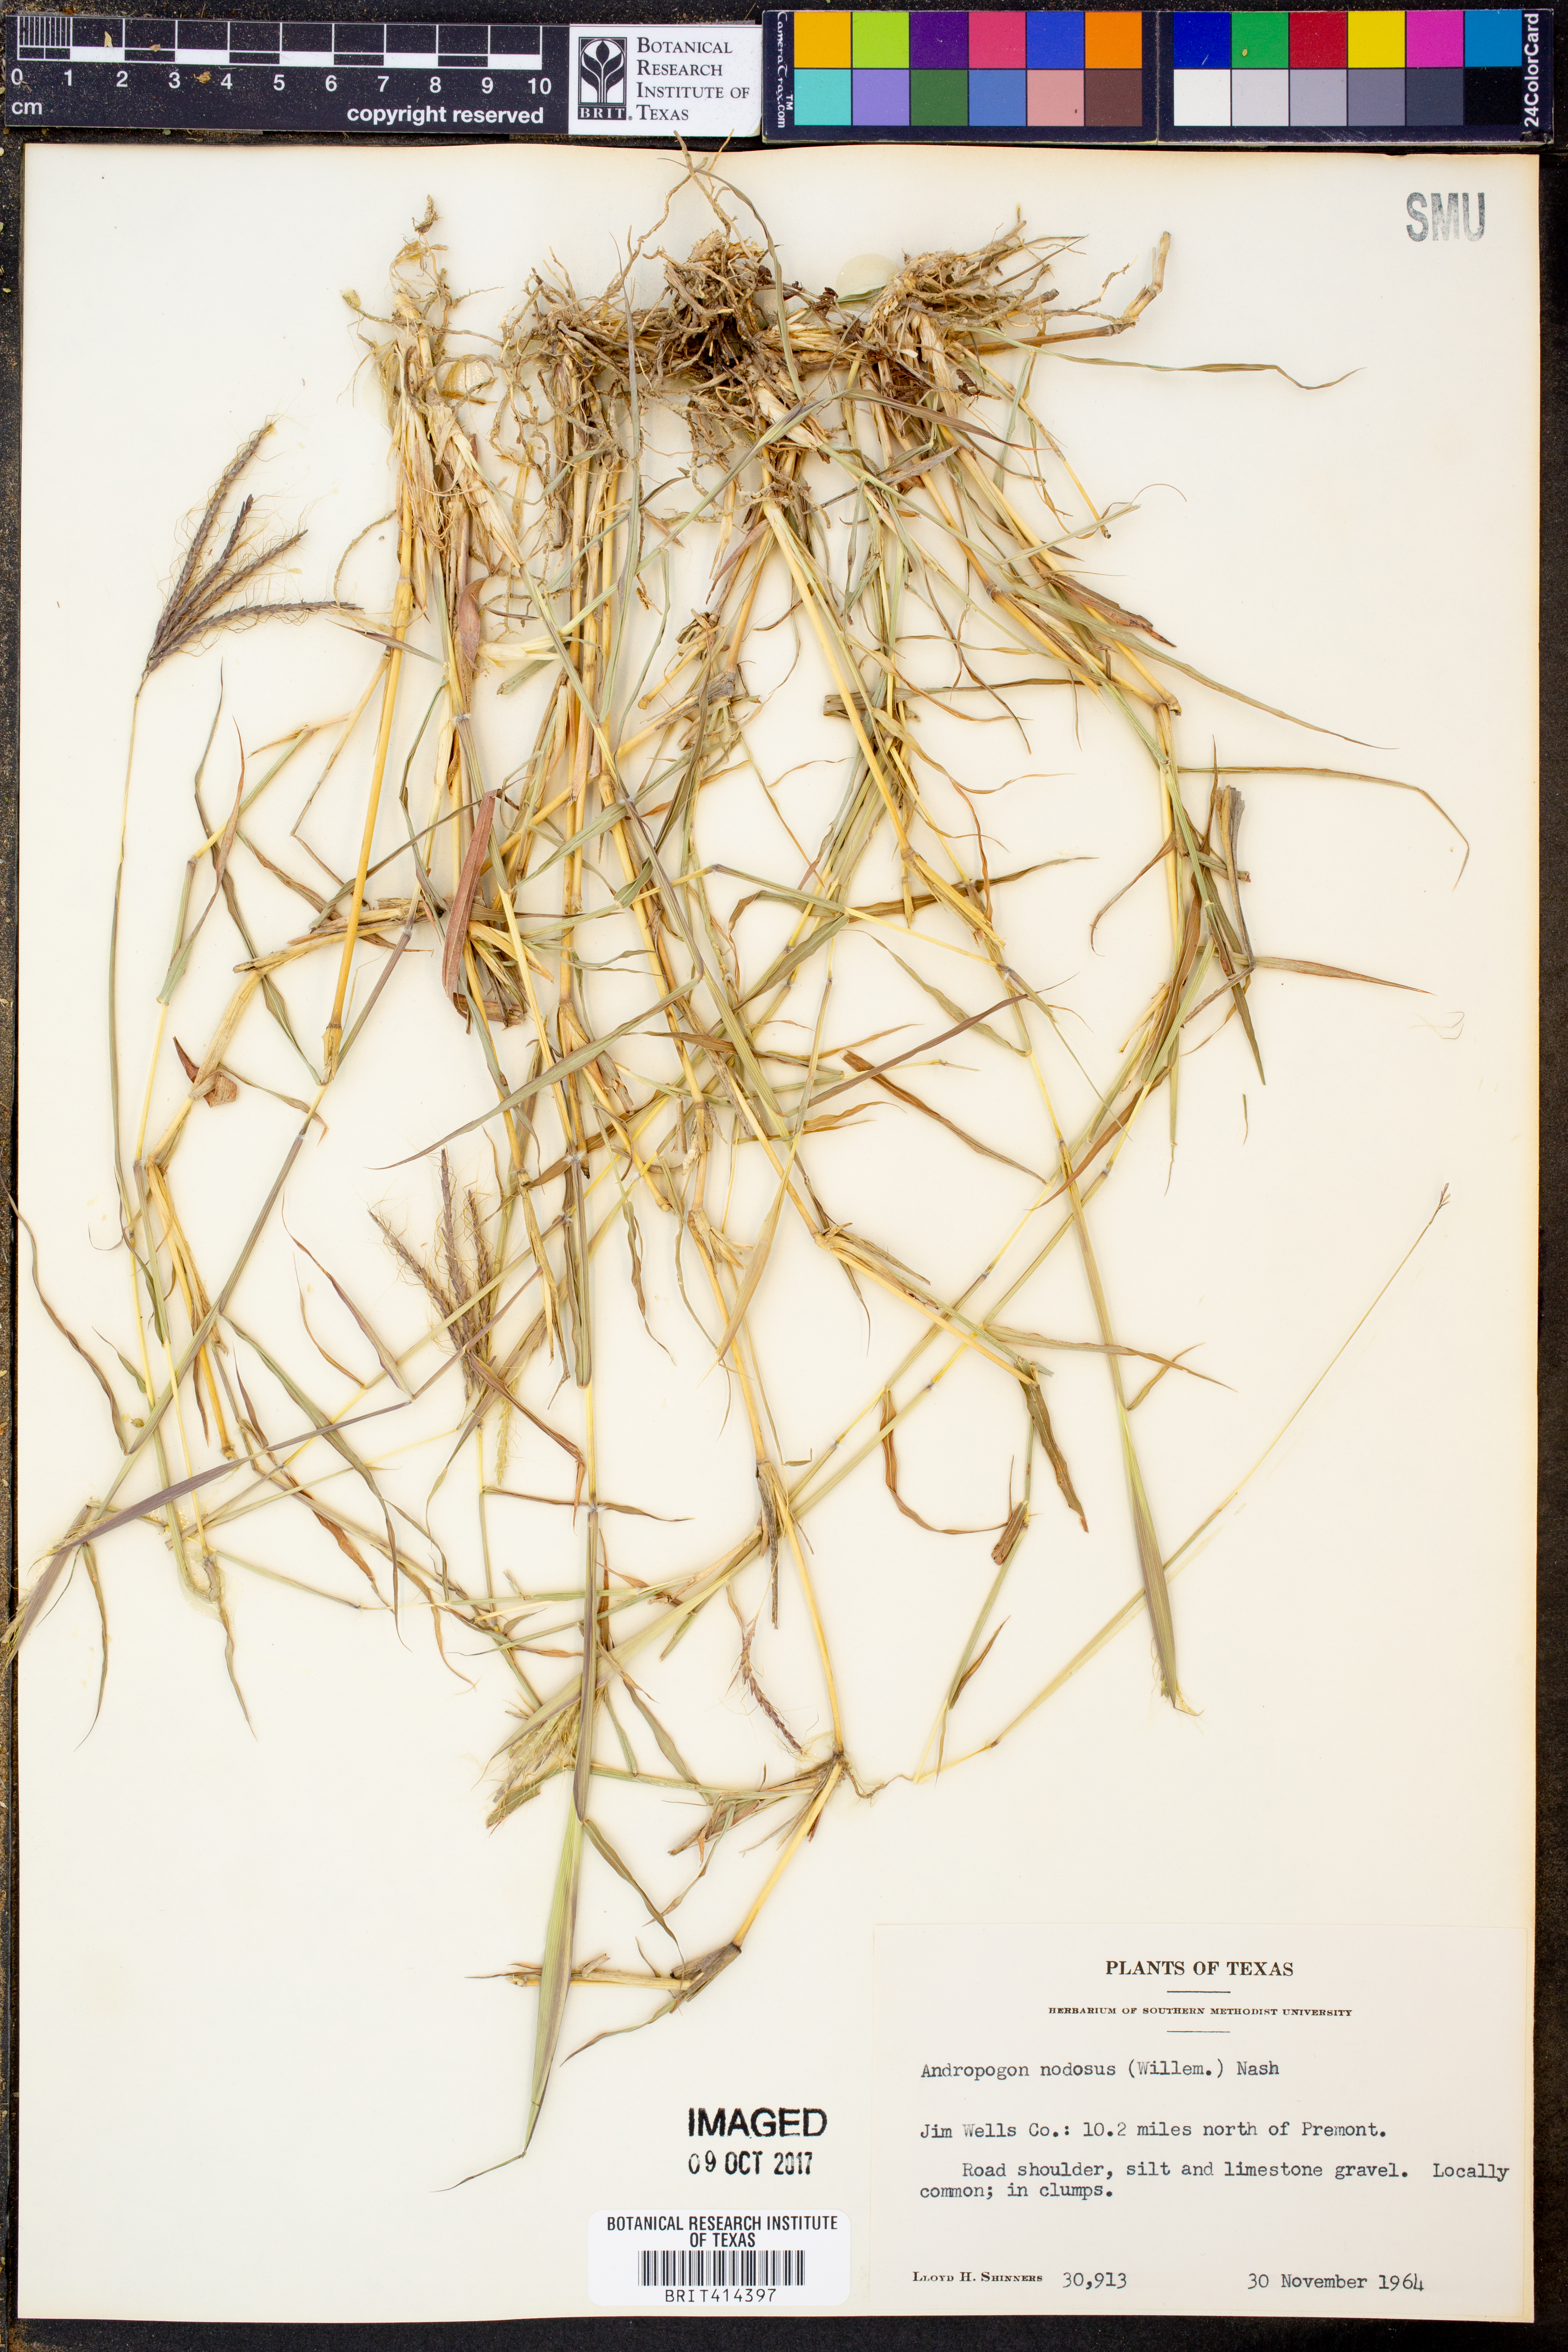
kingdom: Plantae
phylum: Tracheophyta
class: Liliopsida
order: Poales
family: Poaceae
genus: Dichanthium
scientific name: Dichanthium annulatum
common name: Kleberg's bluestem
